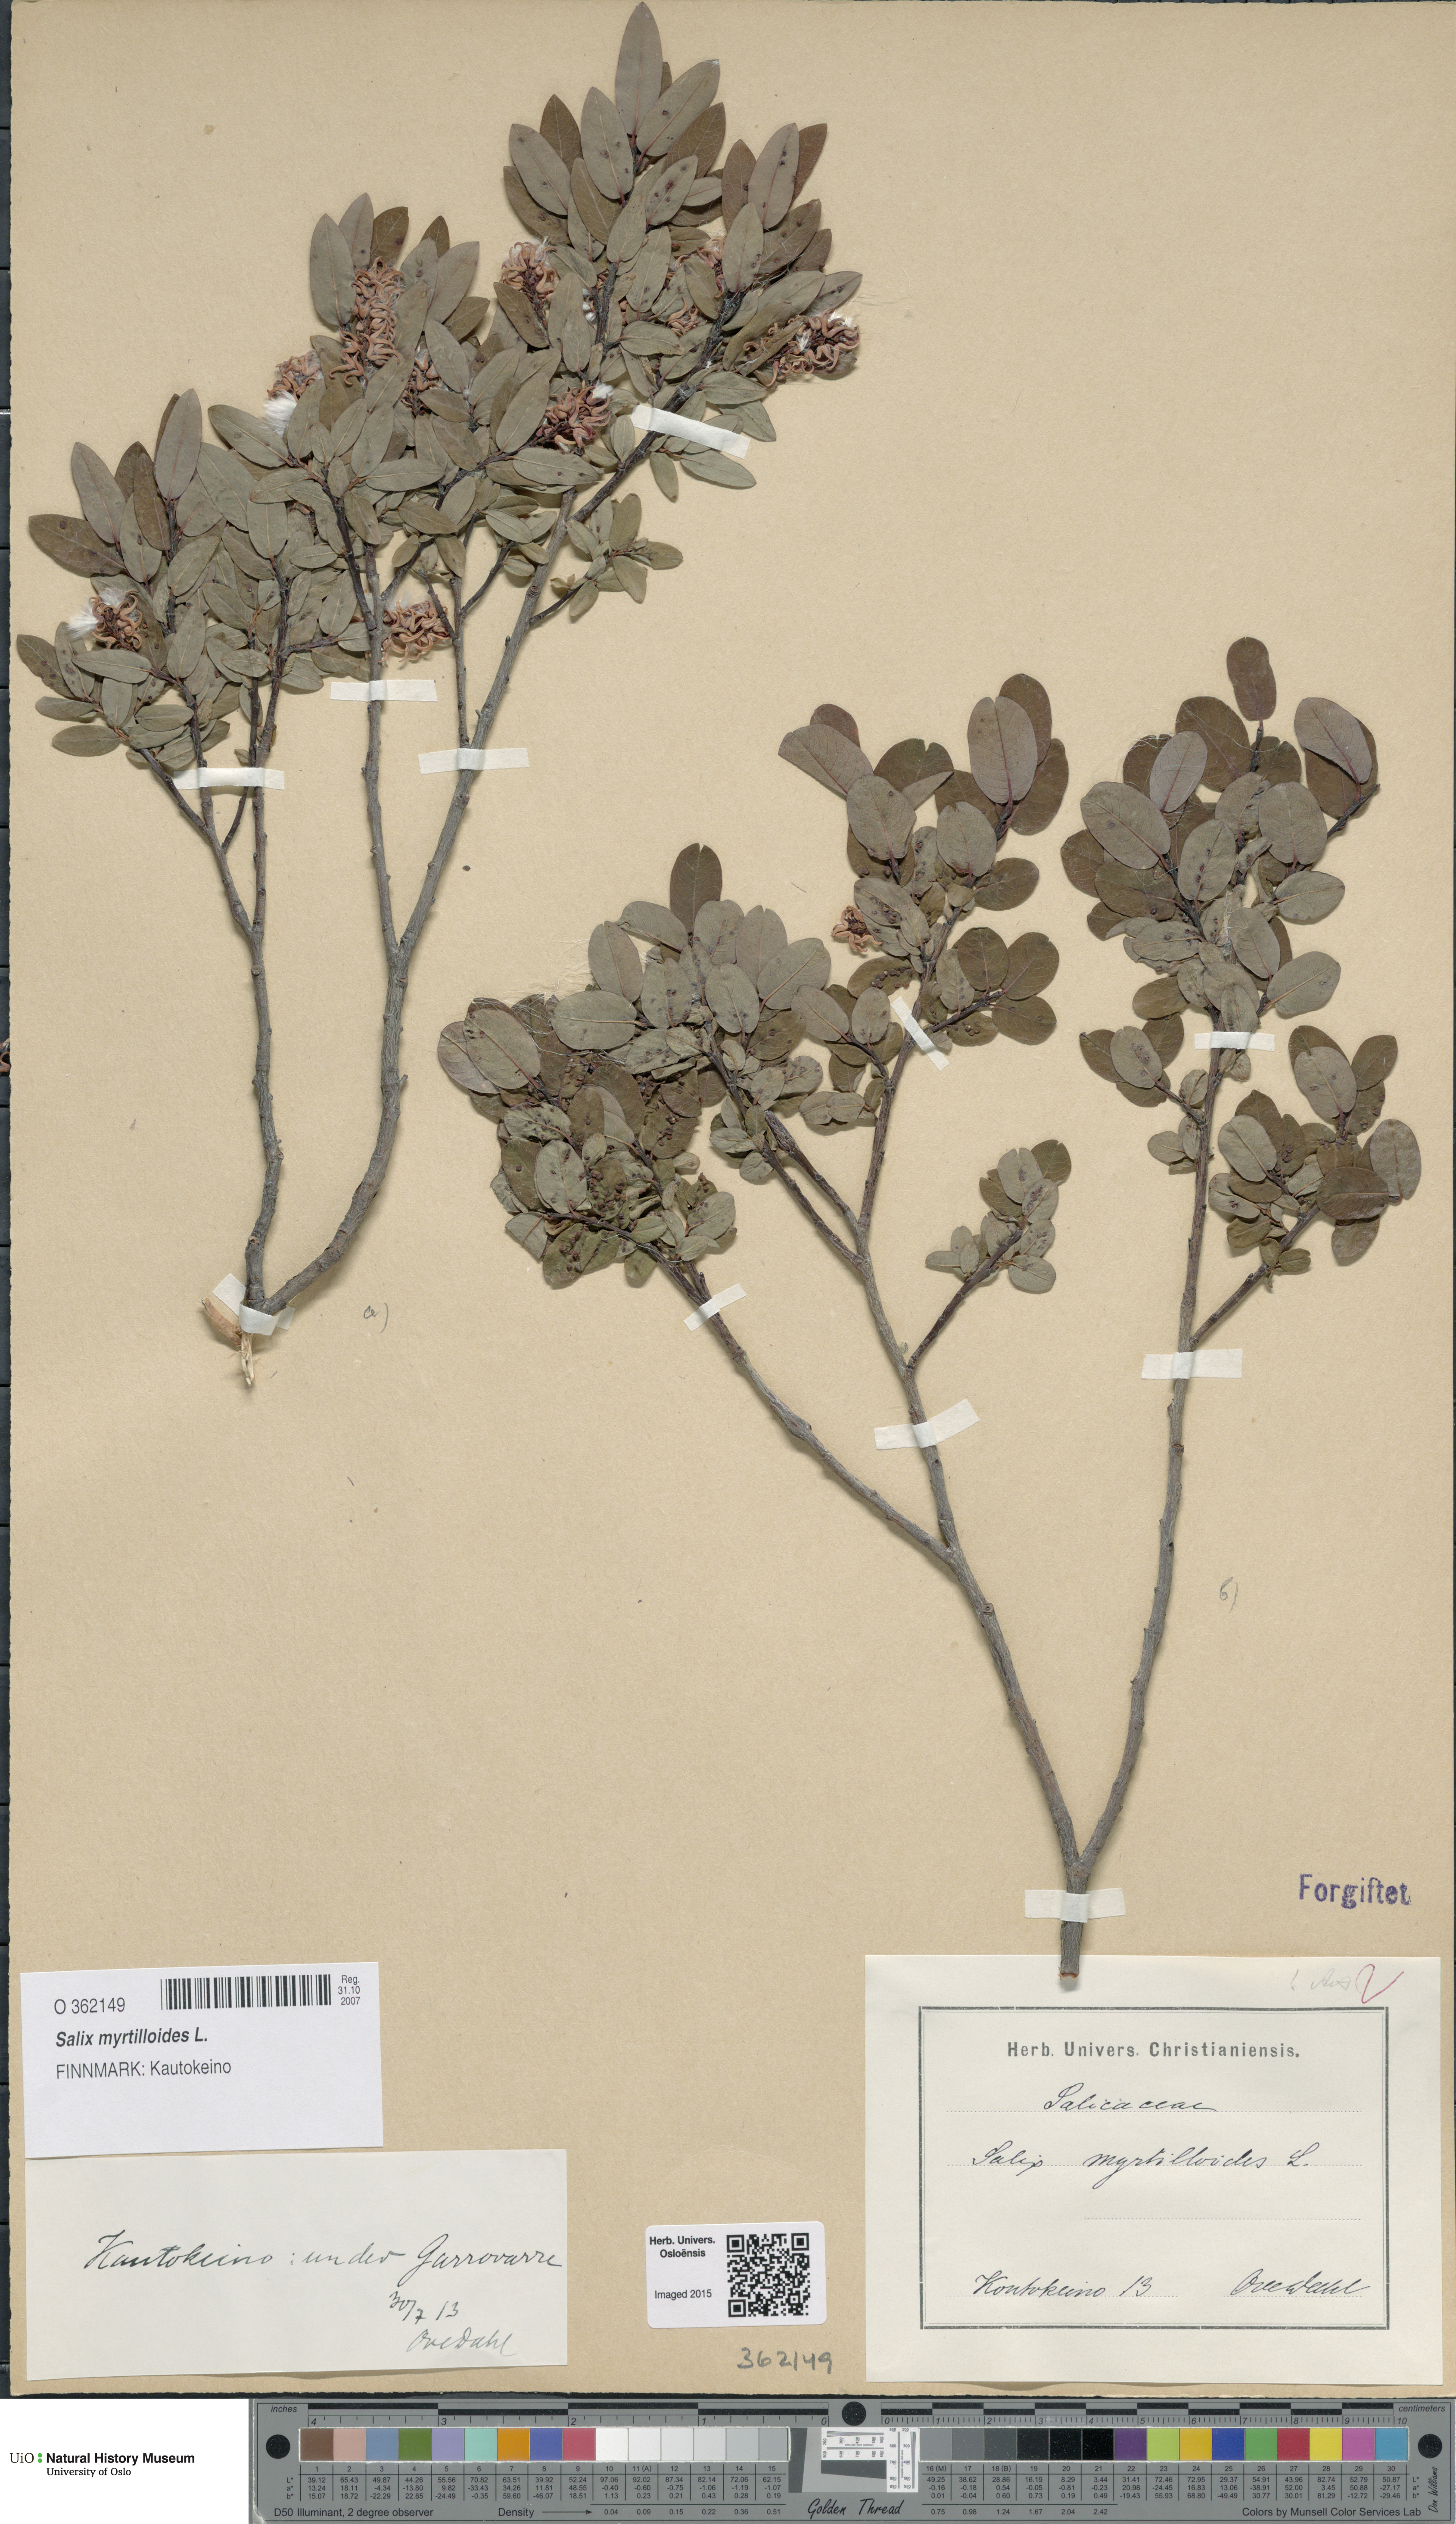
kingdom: Plantae
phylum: Tracheophyta
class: Magnoliopsida
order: Malpighiales
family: Salicaceae
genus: Salix
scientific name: Salix myrtilloides
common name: Myrtle-leaved willow
